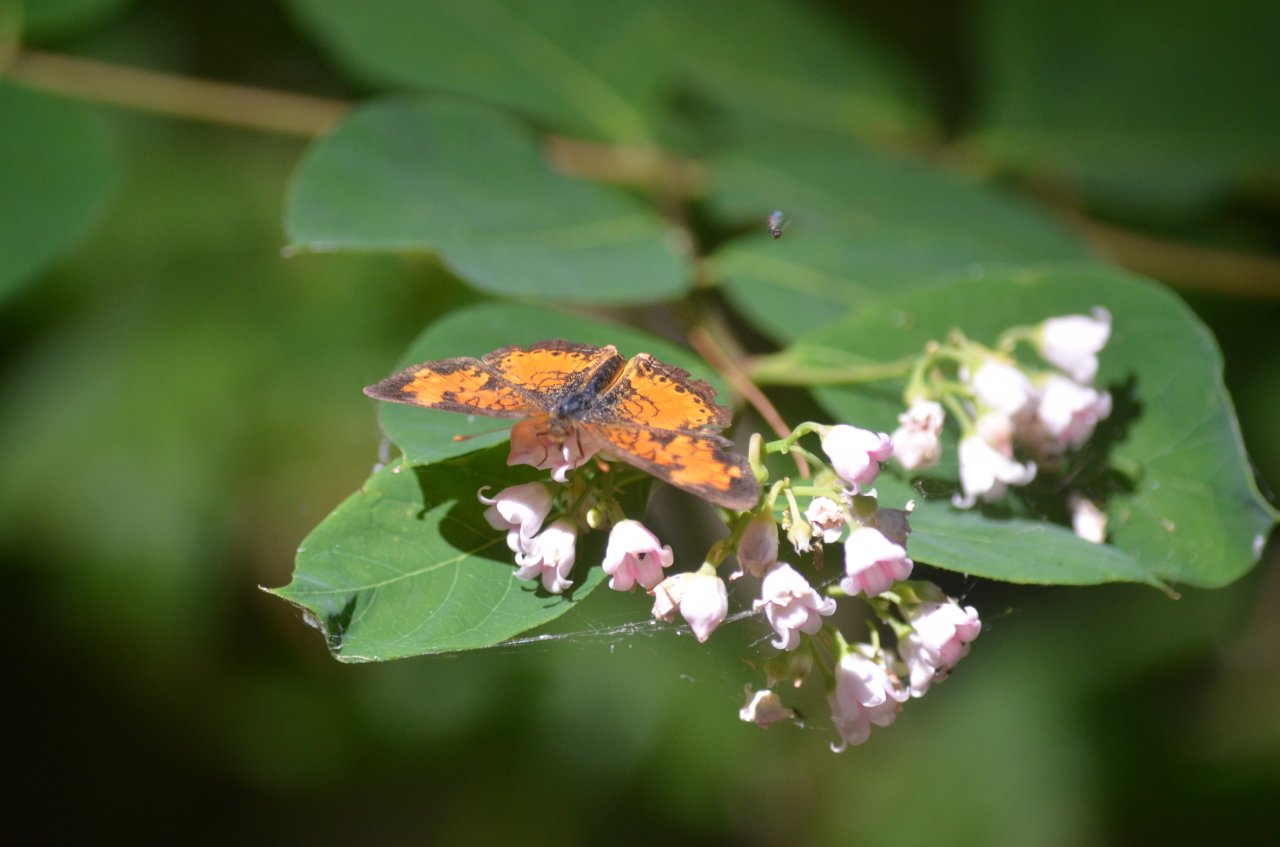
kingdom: Animalia
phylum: Arthropoda
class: Insecta
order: Lepidoptera
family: Nymphalidae
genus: Phyciodes
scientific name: Phyciodes tharos
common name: Northern Crescent
